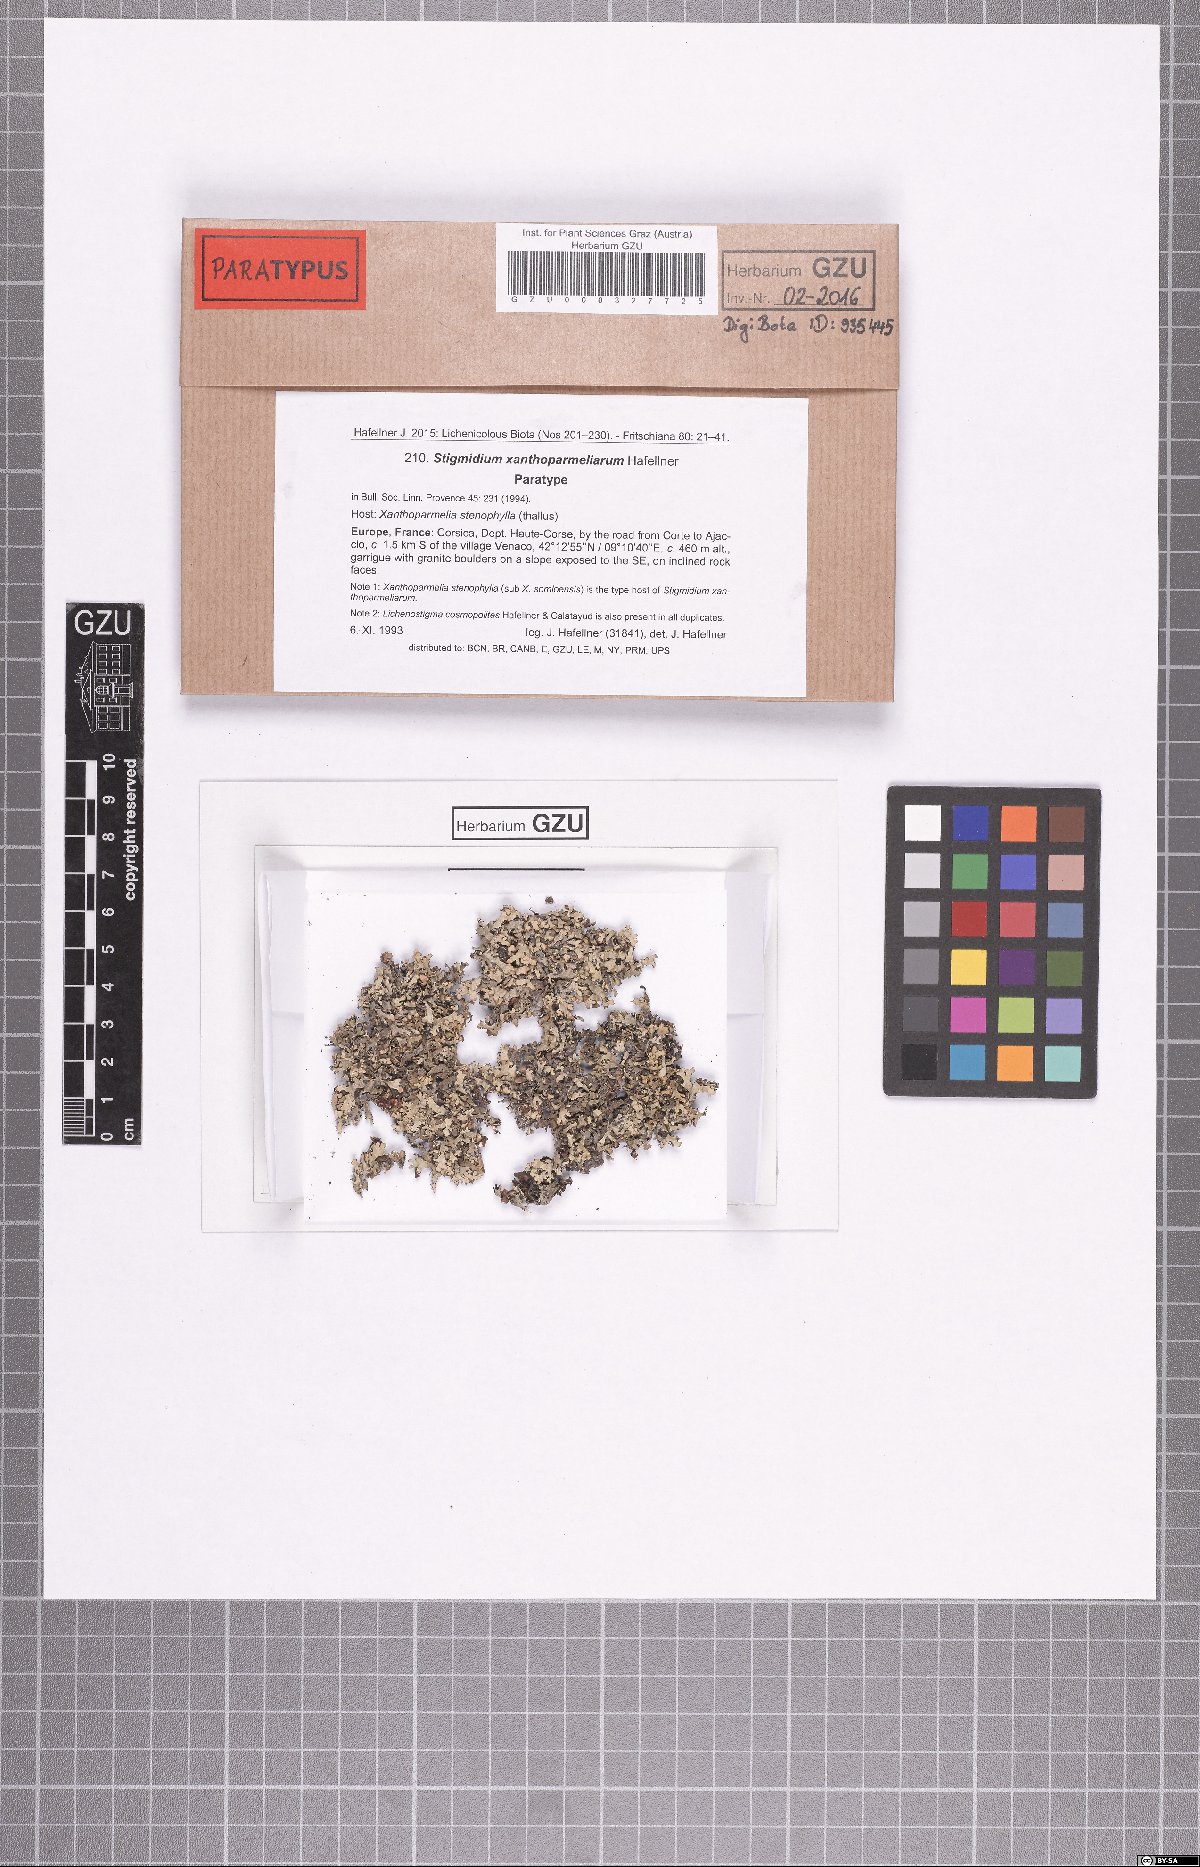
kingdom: Fungi
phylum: Ascomycota
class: Dothideomycetes
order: Mycosphaerellales
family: Mycosphaerellaceae
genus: Stigmidium
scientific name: Stigmidium xanthoparmeliarum
